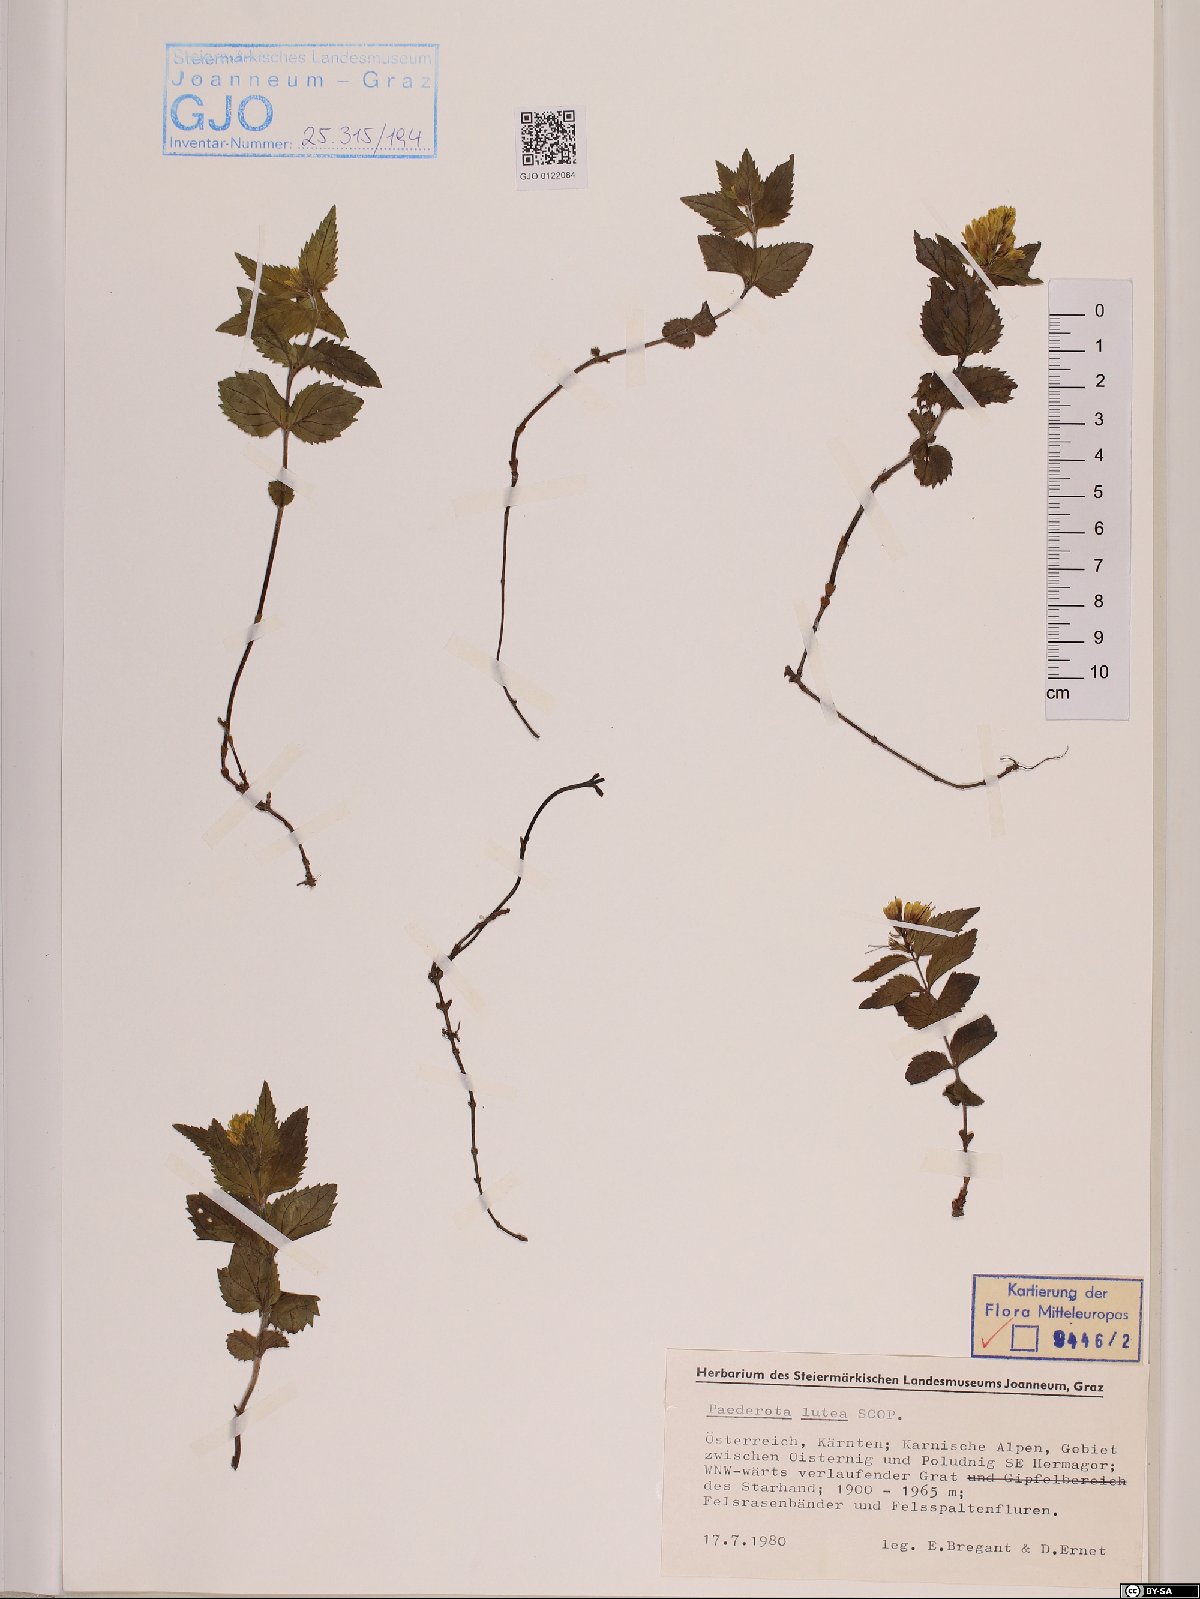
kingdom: Plantae
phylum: Tracheophyta
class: Magnoliopsida
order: Lamiales
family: Plantaginaceae
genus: Paederota
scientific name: Paederota lutea
